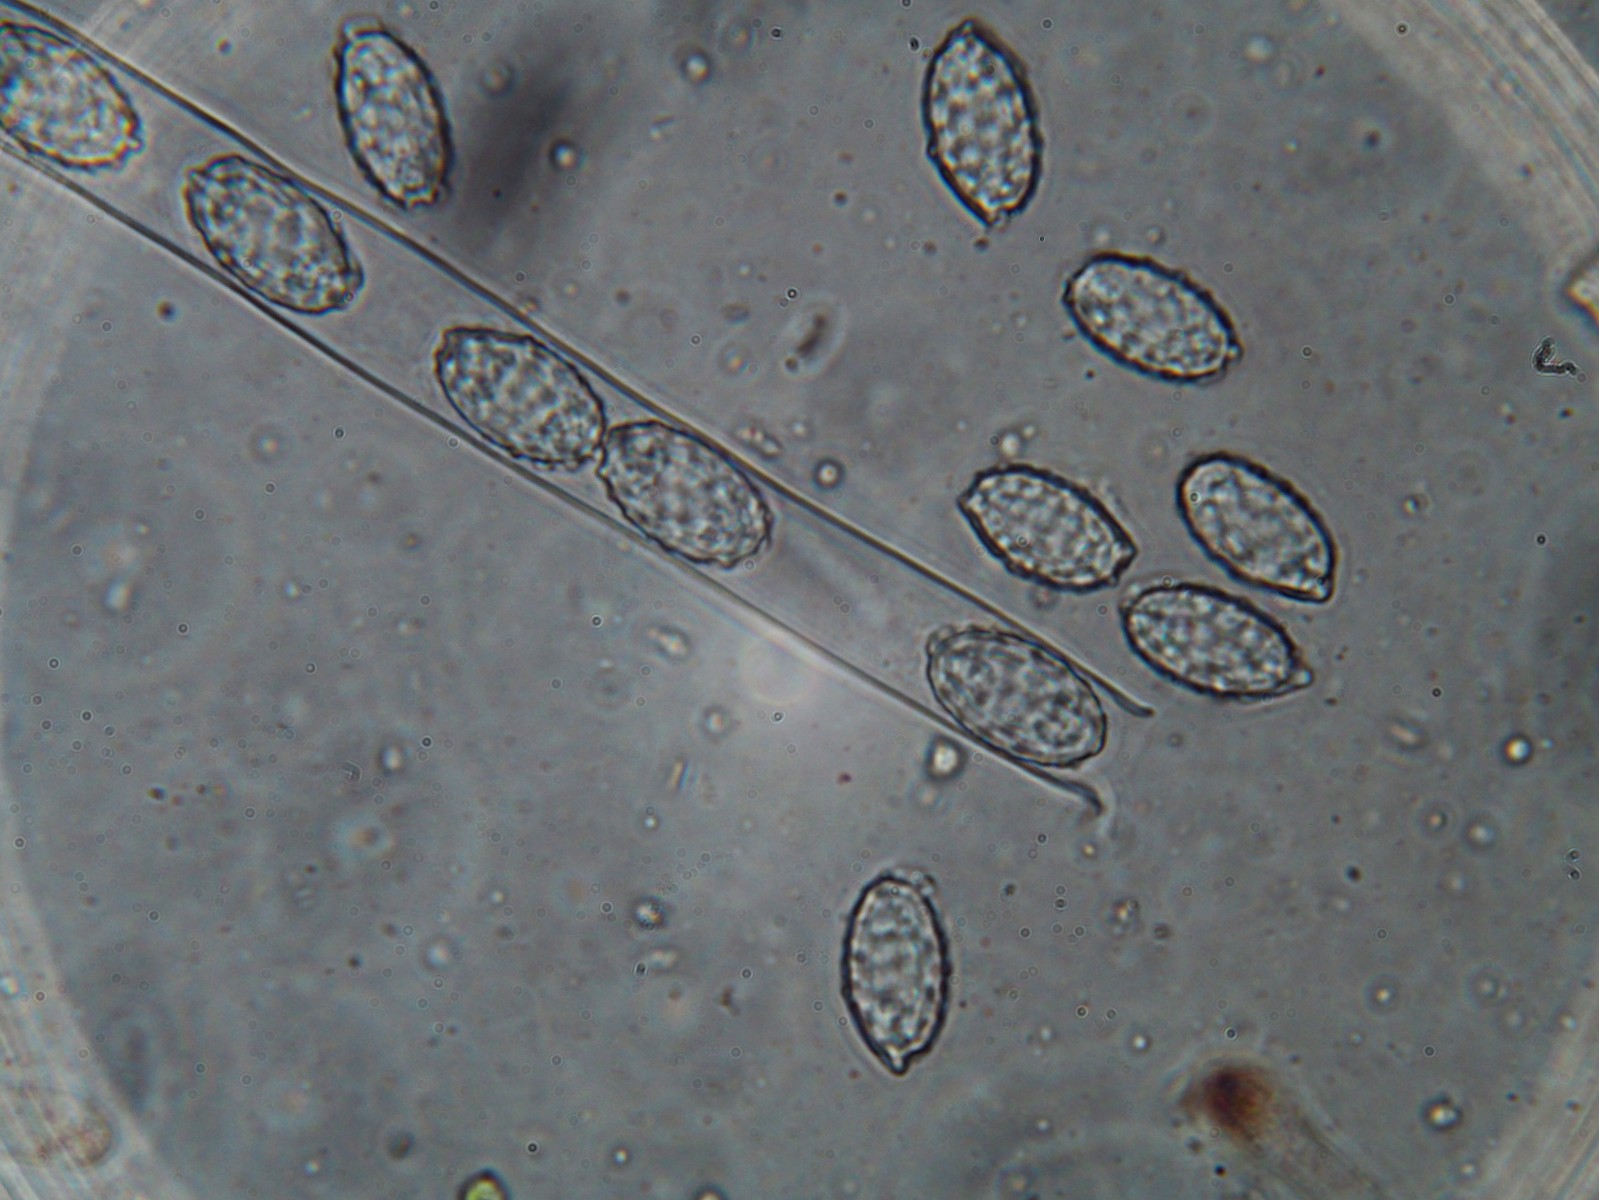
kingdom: Fungi
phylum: Ascomycota
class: Pezizomycetes
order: Pezizales
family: Pyronemataceae
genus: Melastiza
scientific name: Melastiza cornubiensis
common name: mørkrandet rødbæger
